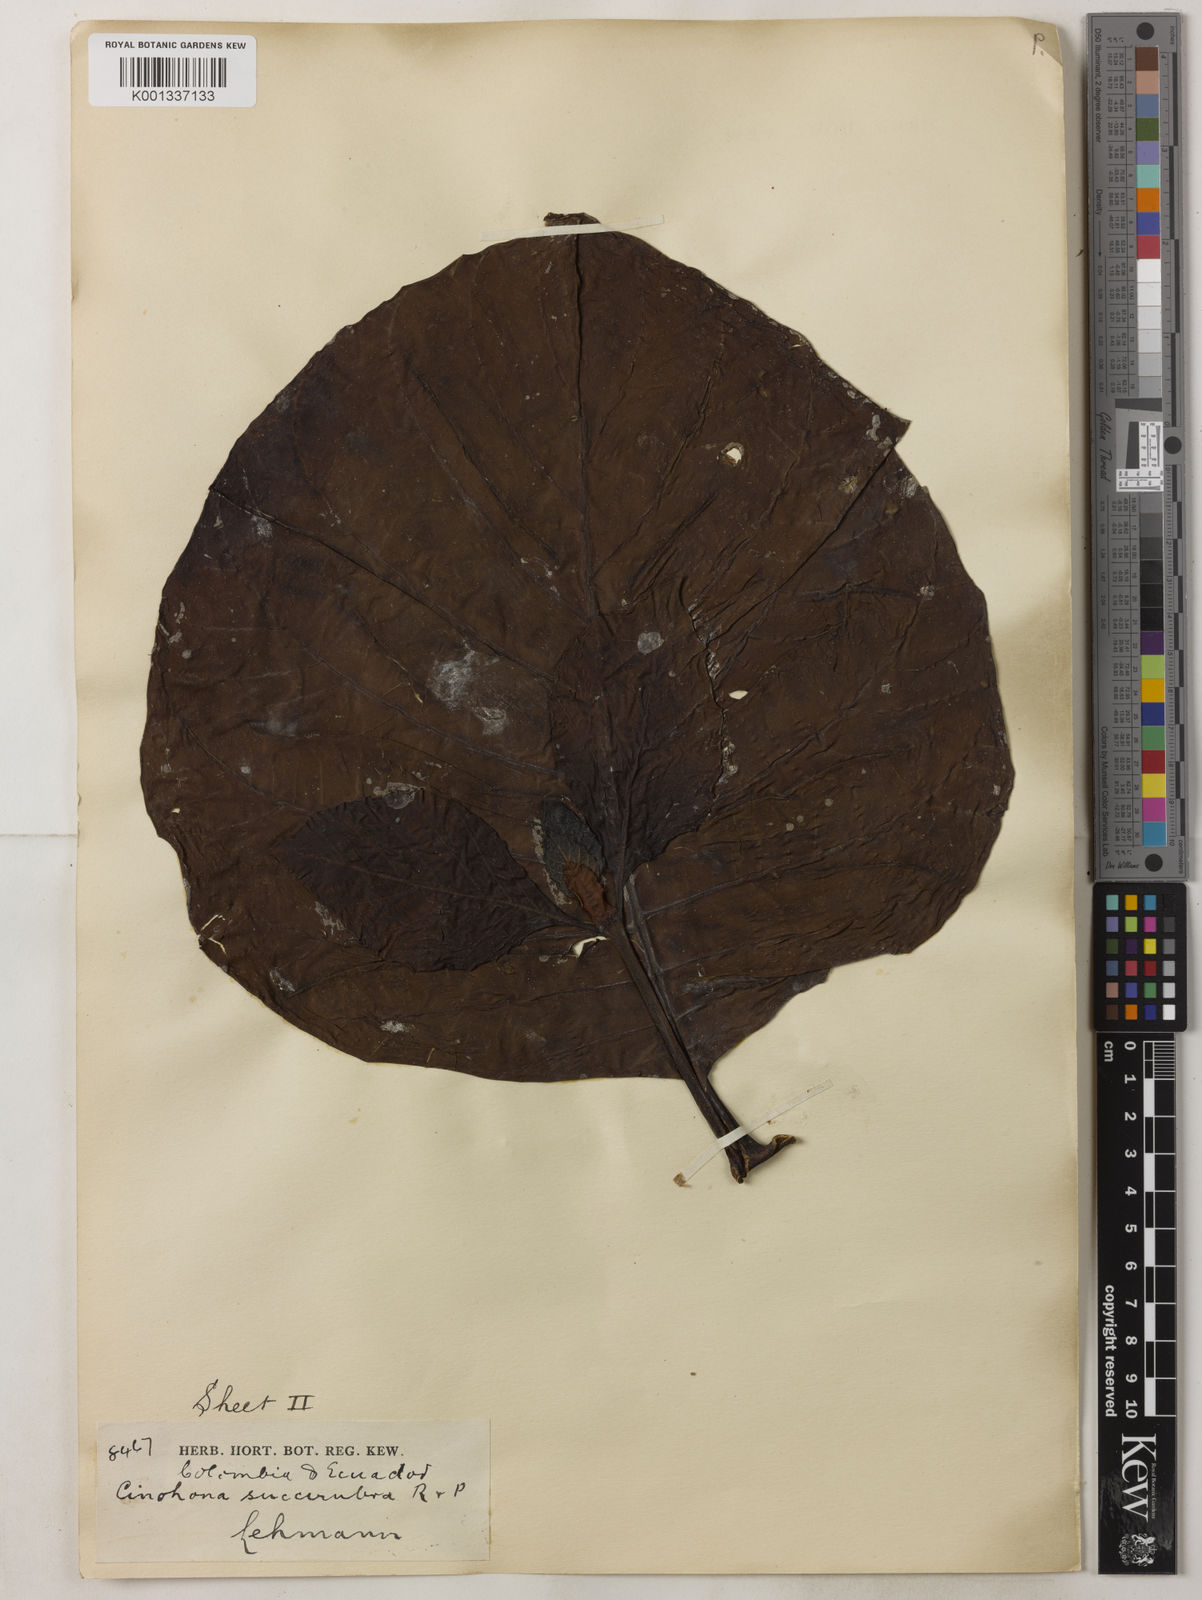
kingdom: Plantae
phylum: Tracheophyta
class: Magnoliopsida
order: Gentianales
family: Rubiaceae
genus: Cinchona
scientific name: Cinchona pubescens
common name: Quinine
